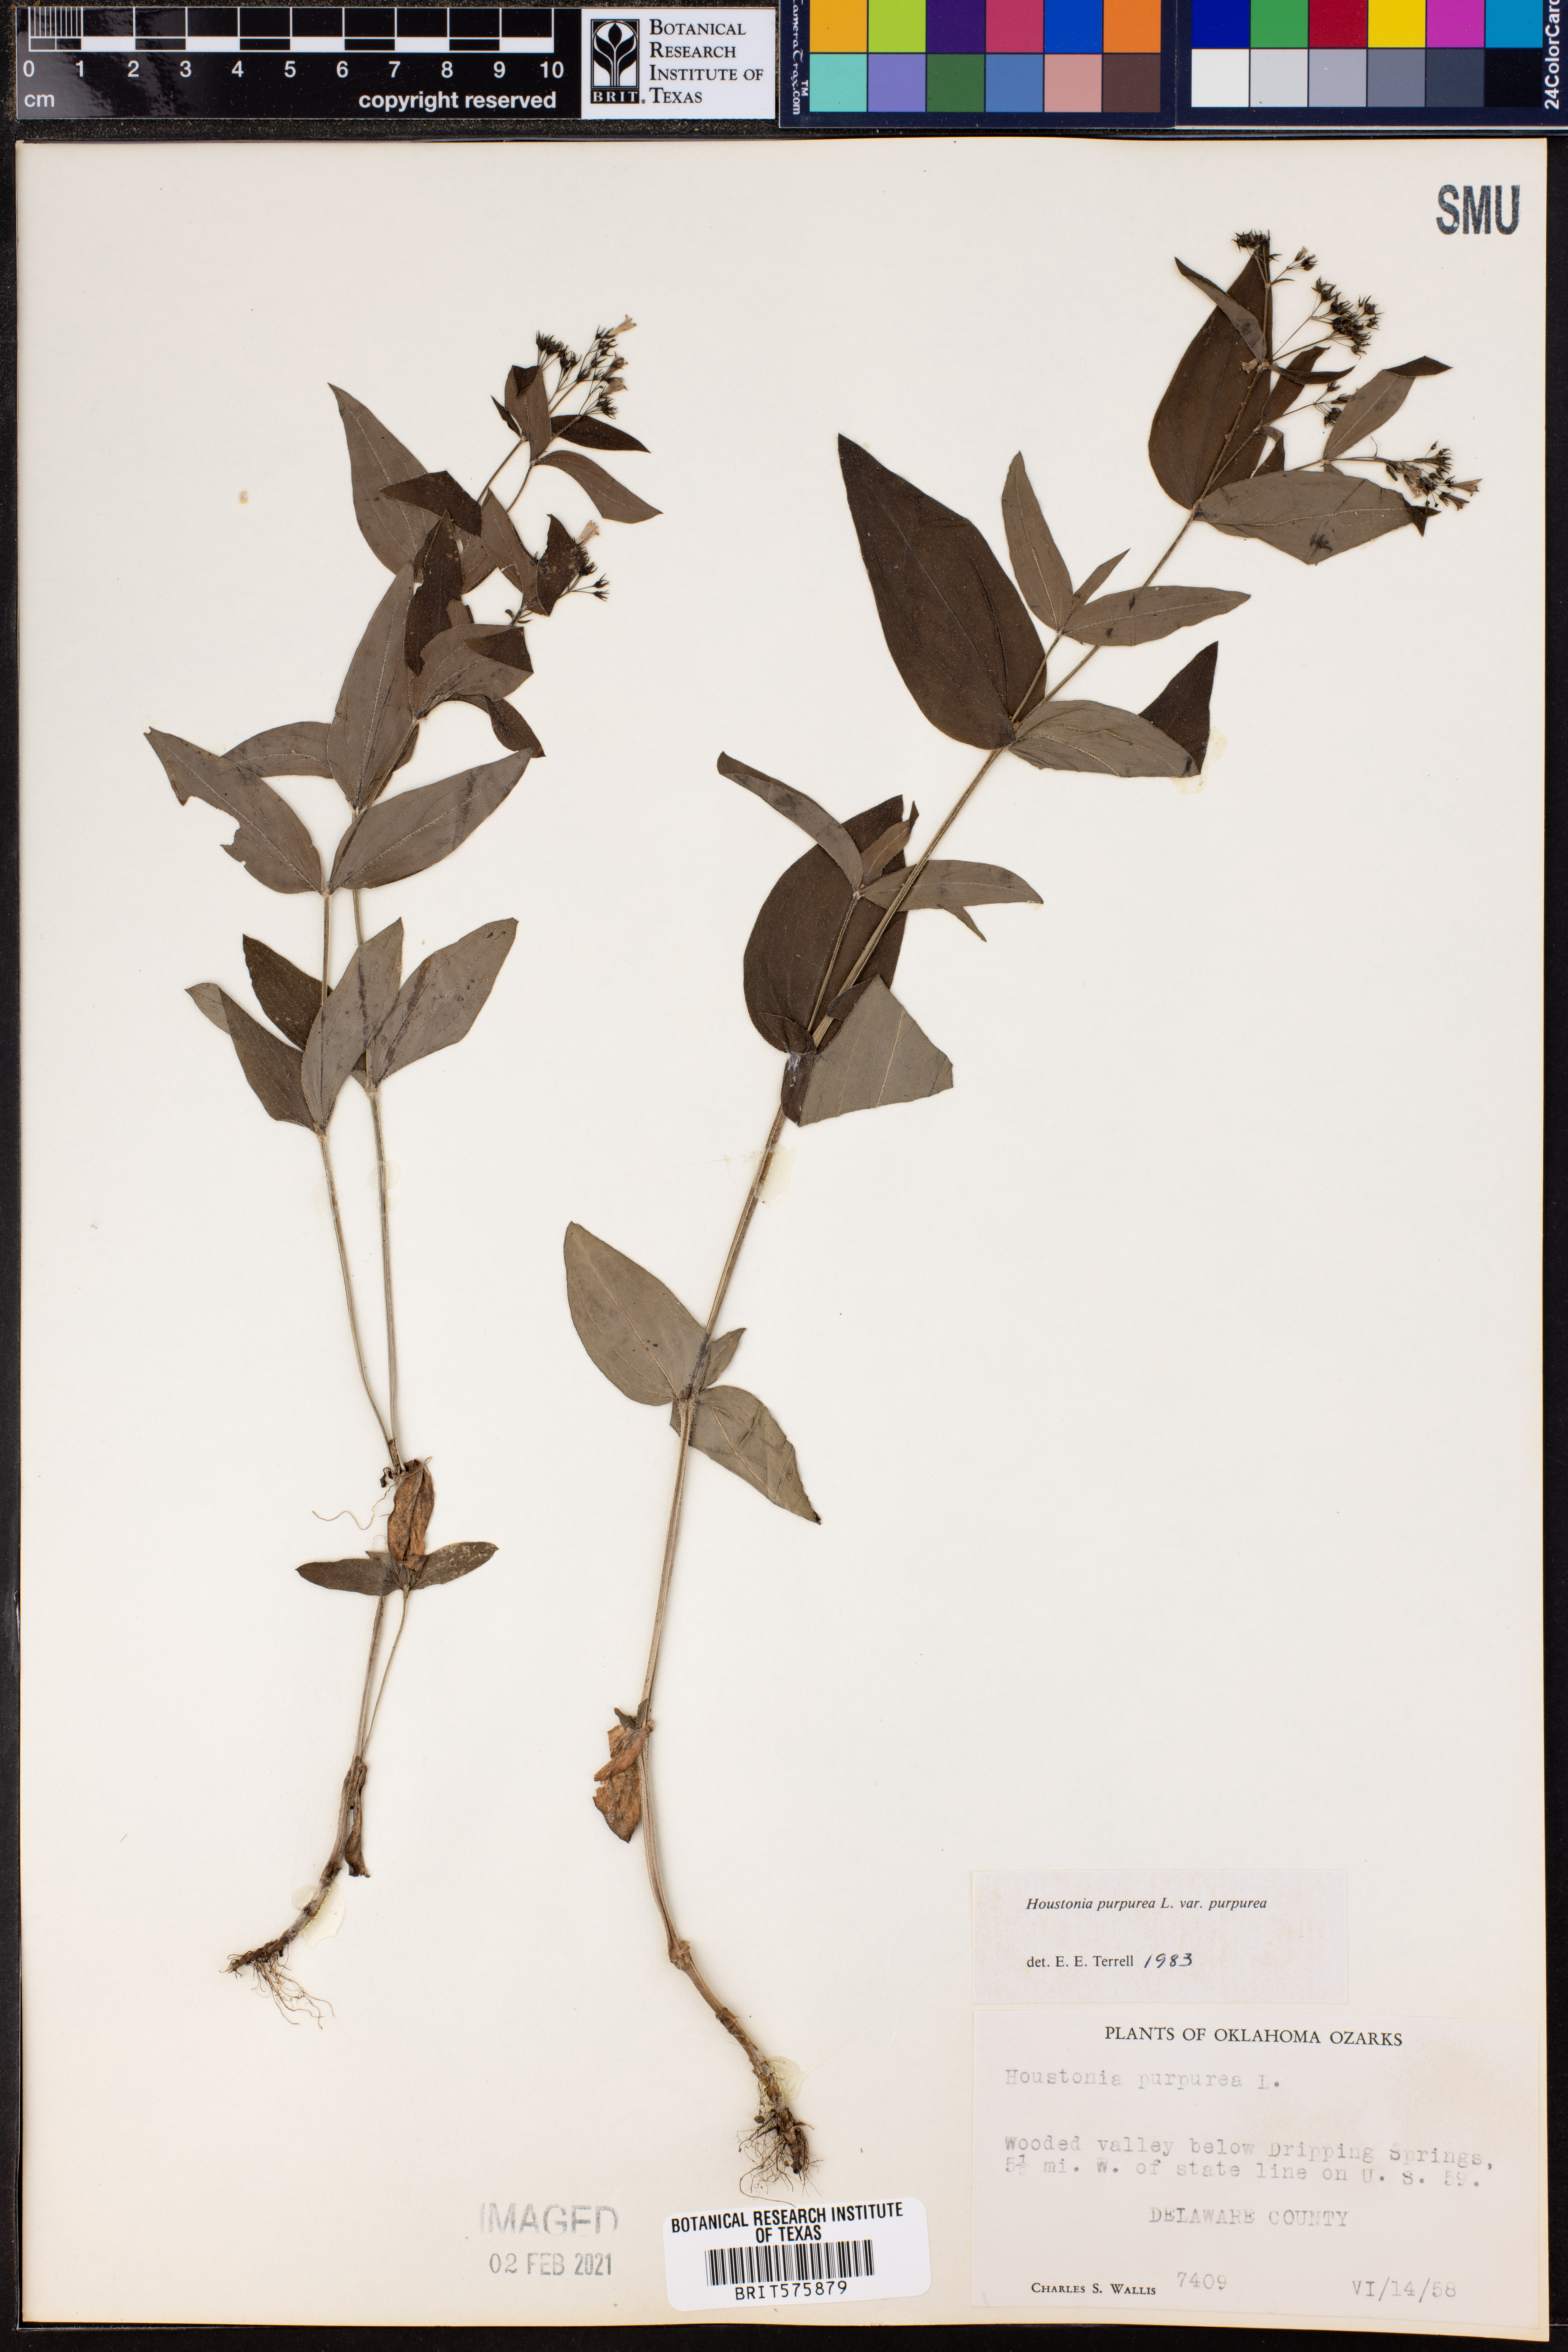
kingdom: Plantae
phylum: Tracheophyta
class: Magnoliopsida
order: Gentianales
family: Rubiaceae
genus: Houstonia
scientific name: Houstonia purpurea
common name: Summer bluet
